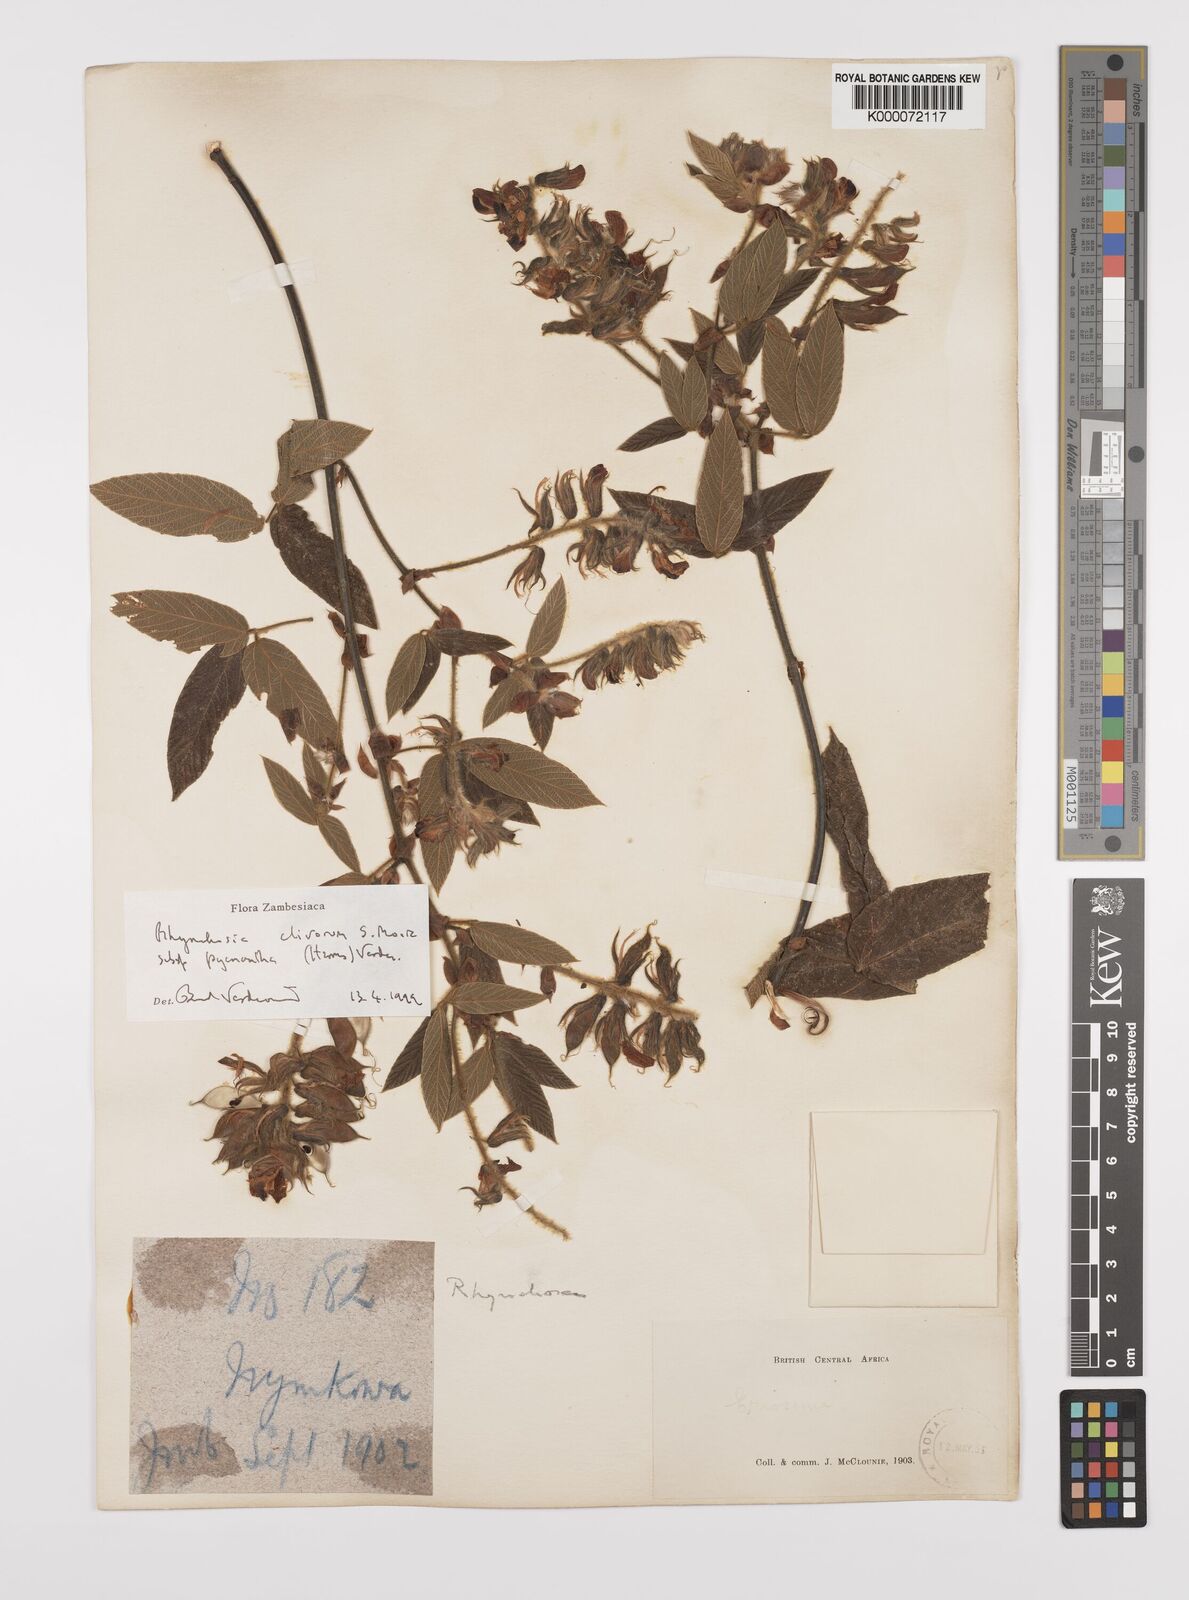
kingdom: Plantae
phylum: Tracheophyta
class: Magnoliopsida
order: Fabales
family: Fabaceae
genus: Rhynchosia
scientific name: Rhynchosia clivorum
